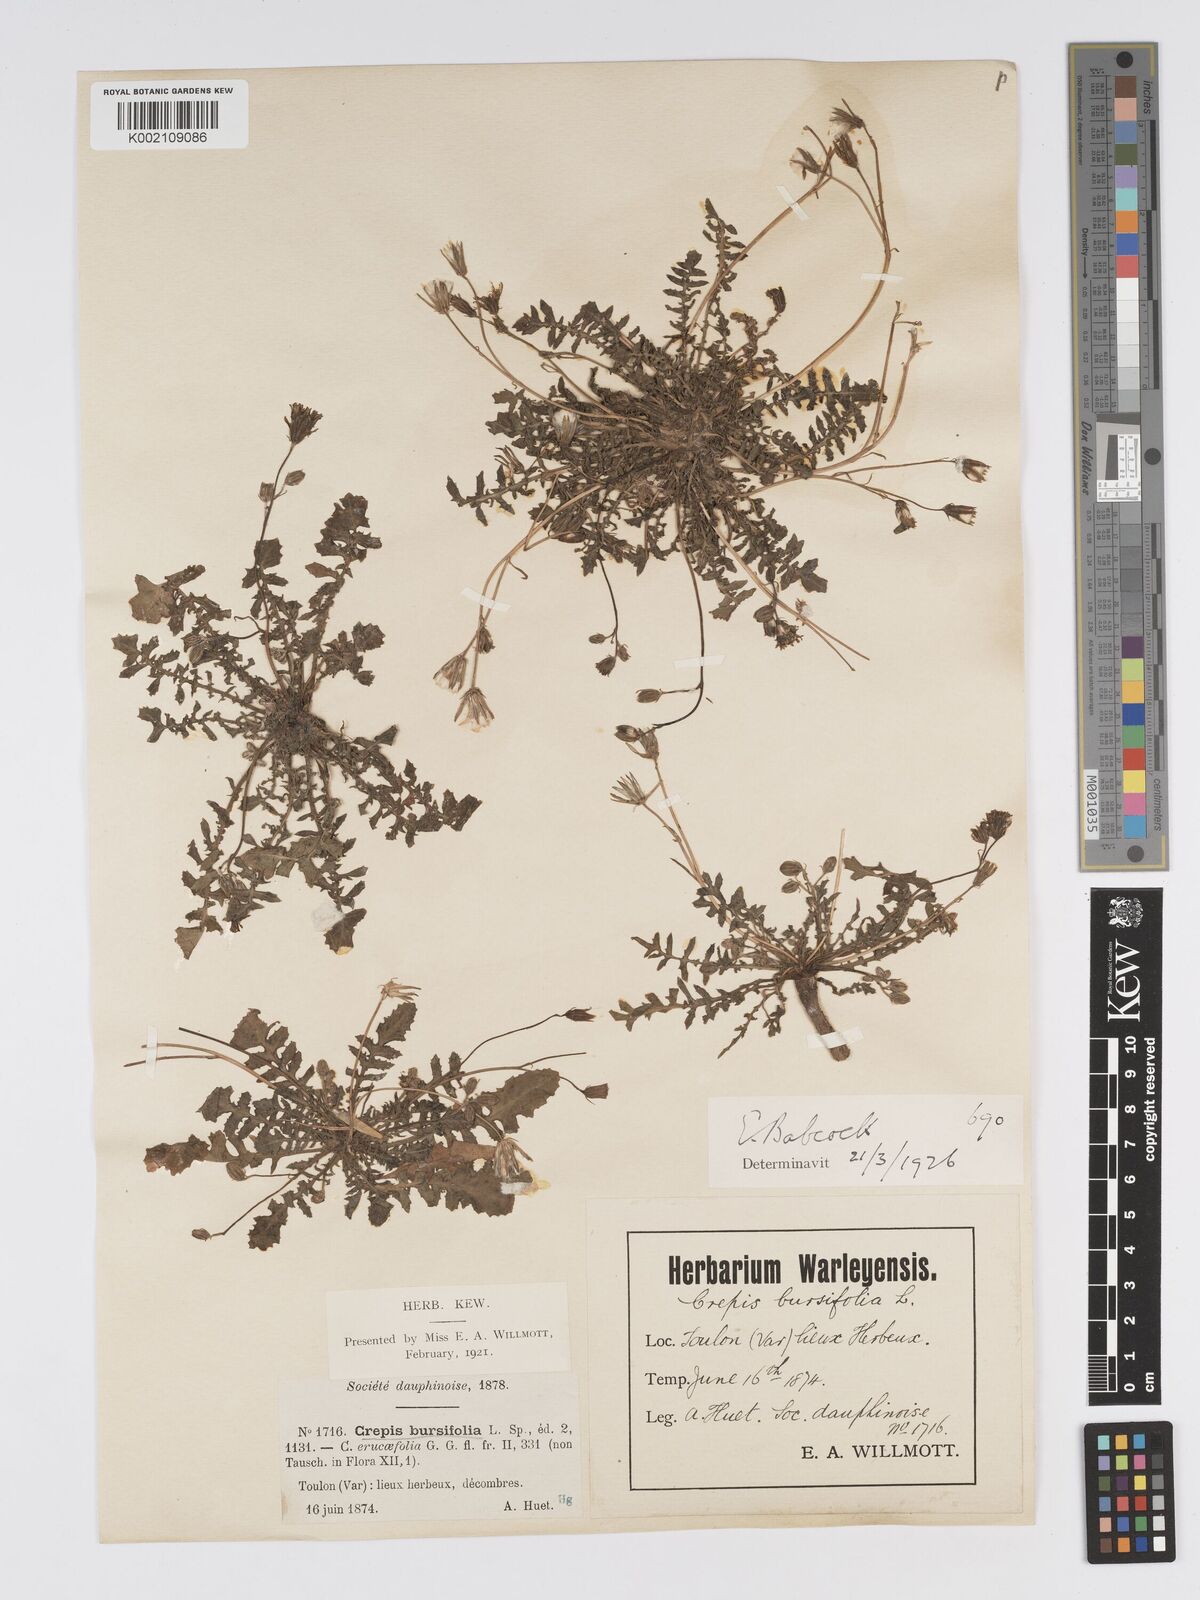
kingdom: Plantae
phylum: Tracheophyta
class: Magnoliopsida
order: Asterales
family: Asteraceae
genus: Crepis
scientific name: Crepis bursifolia
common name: Italian hawksbeard
